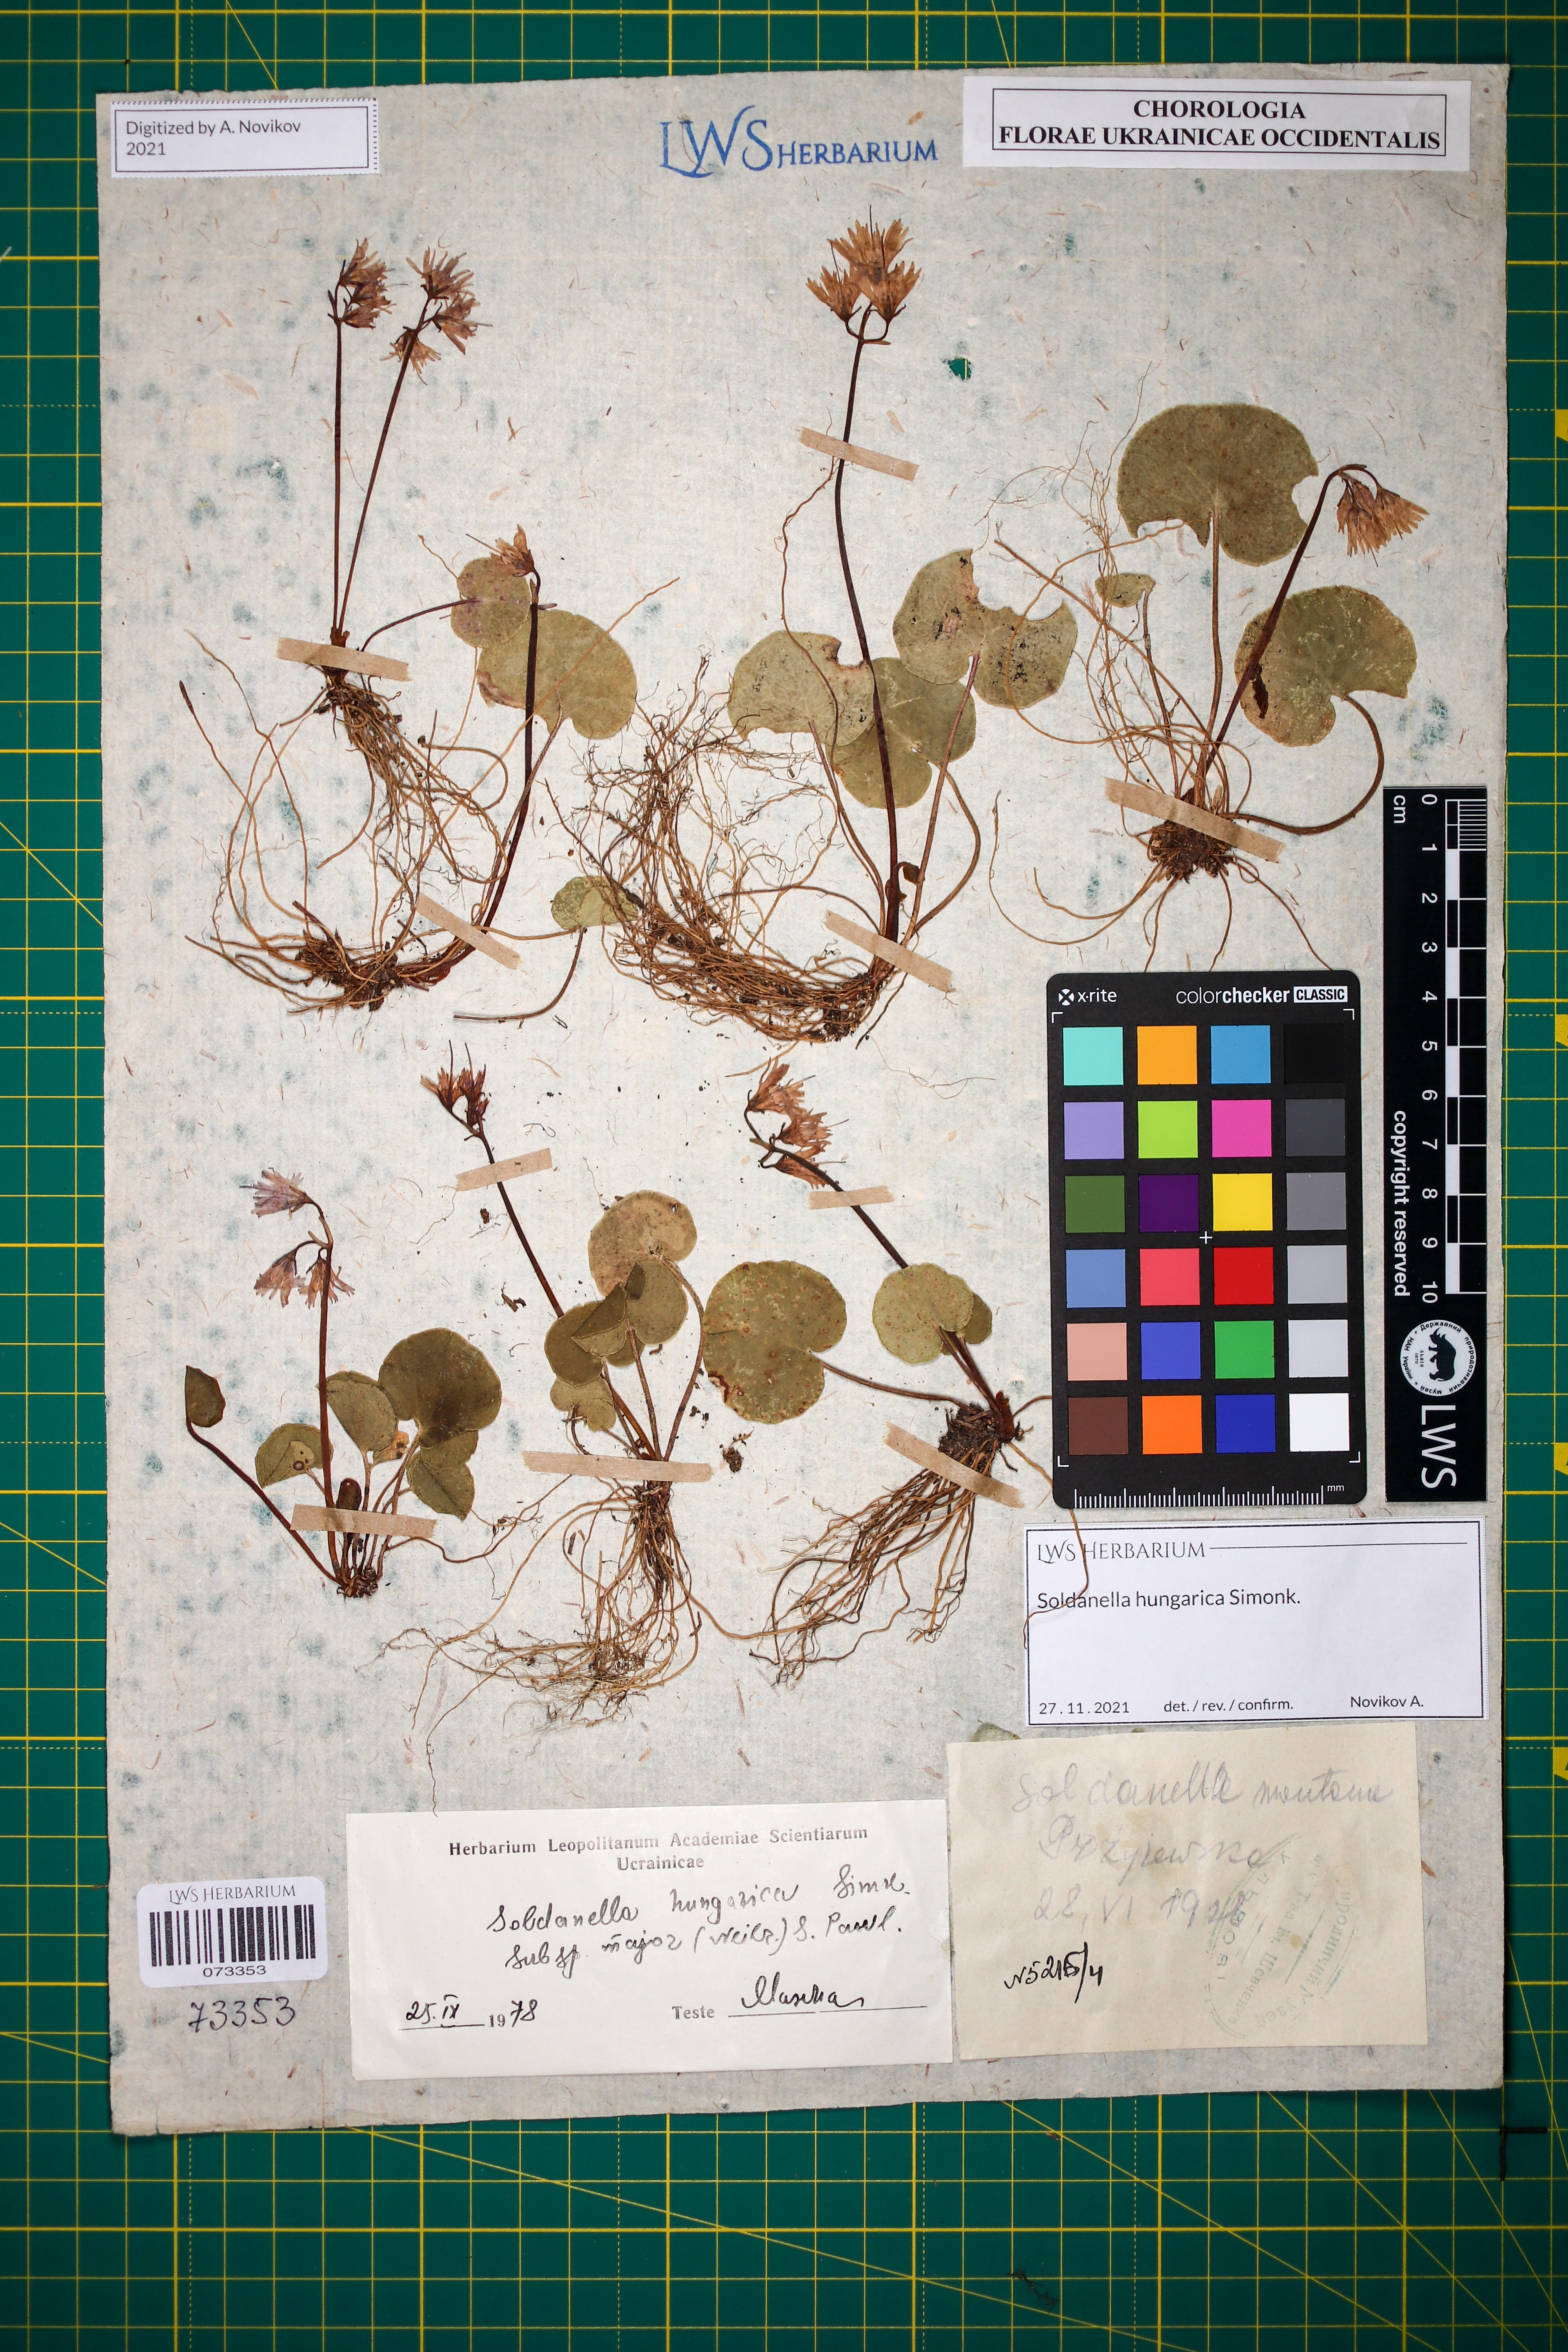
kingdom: Plantae
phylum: Tracheophyta
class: Magnoliopsida
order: Ericales
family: Primulaceae
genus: Soldanella
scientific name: Soldanella hungarica
